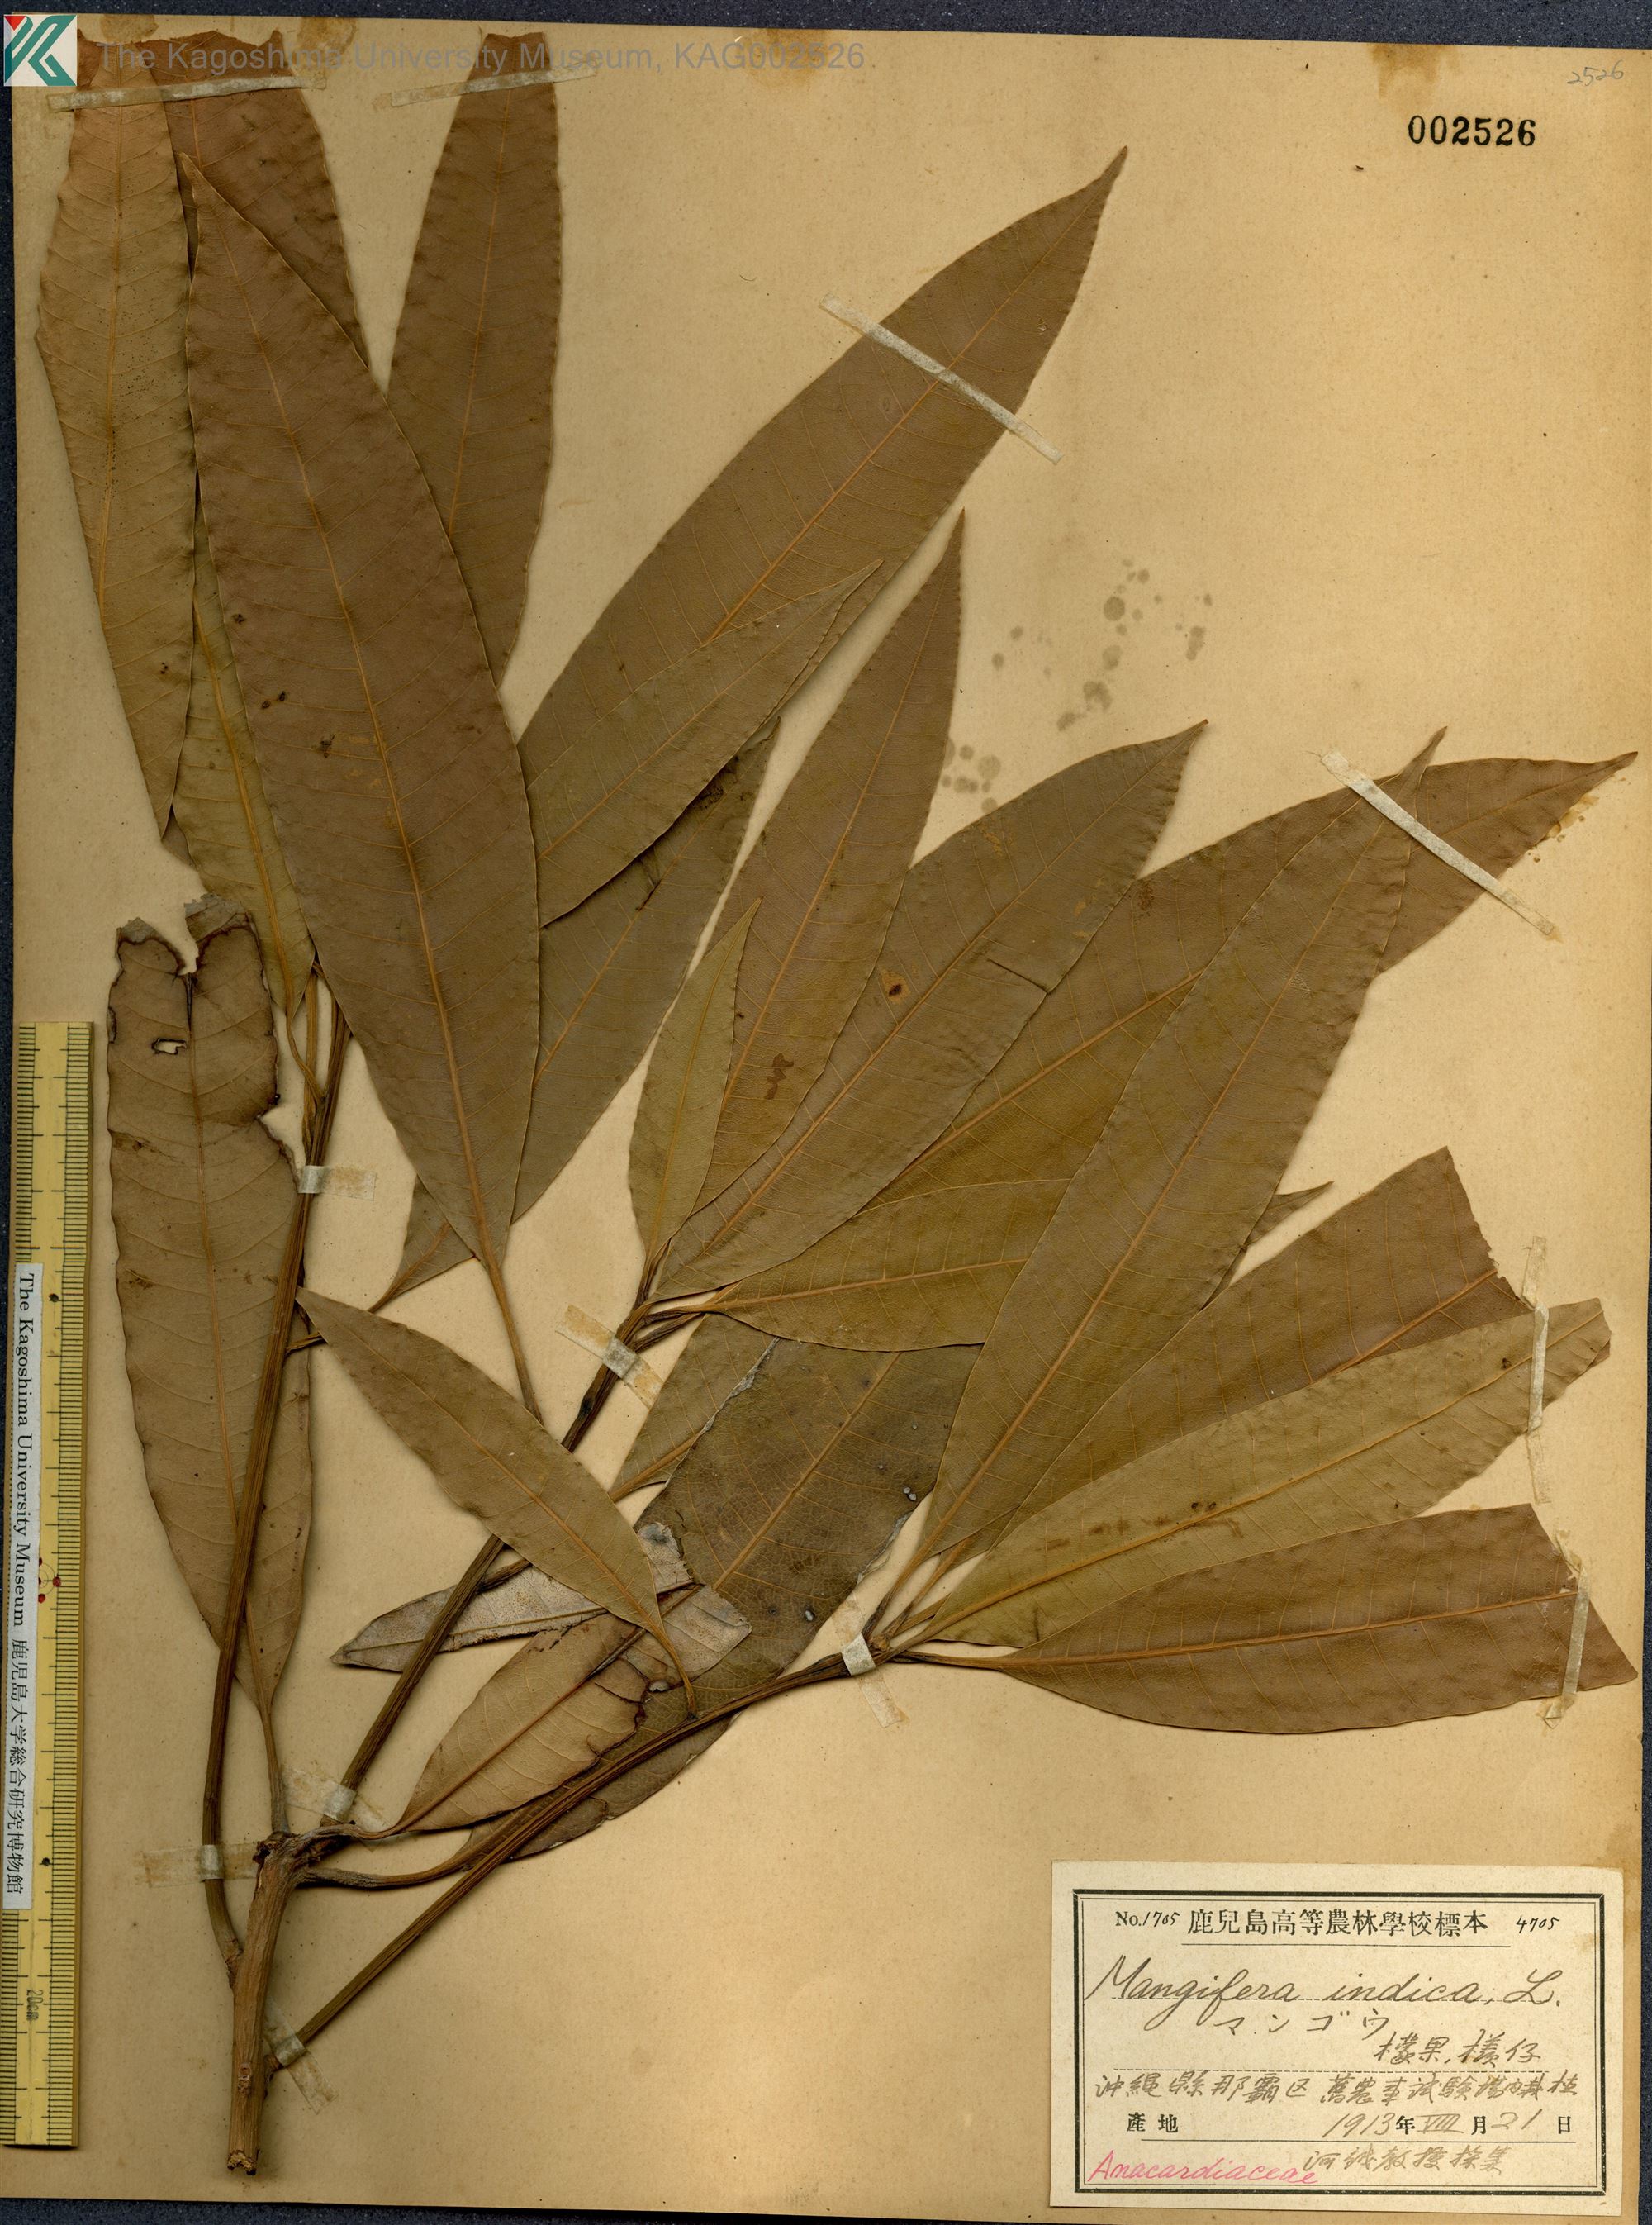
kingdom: Plantae
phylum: Tracheophyta
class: Magnoliopsida
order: Sapindales
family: Anacardiaceae
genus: Mangifera
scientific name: Mangifera indica
